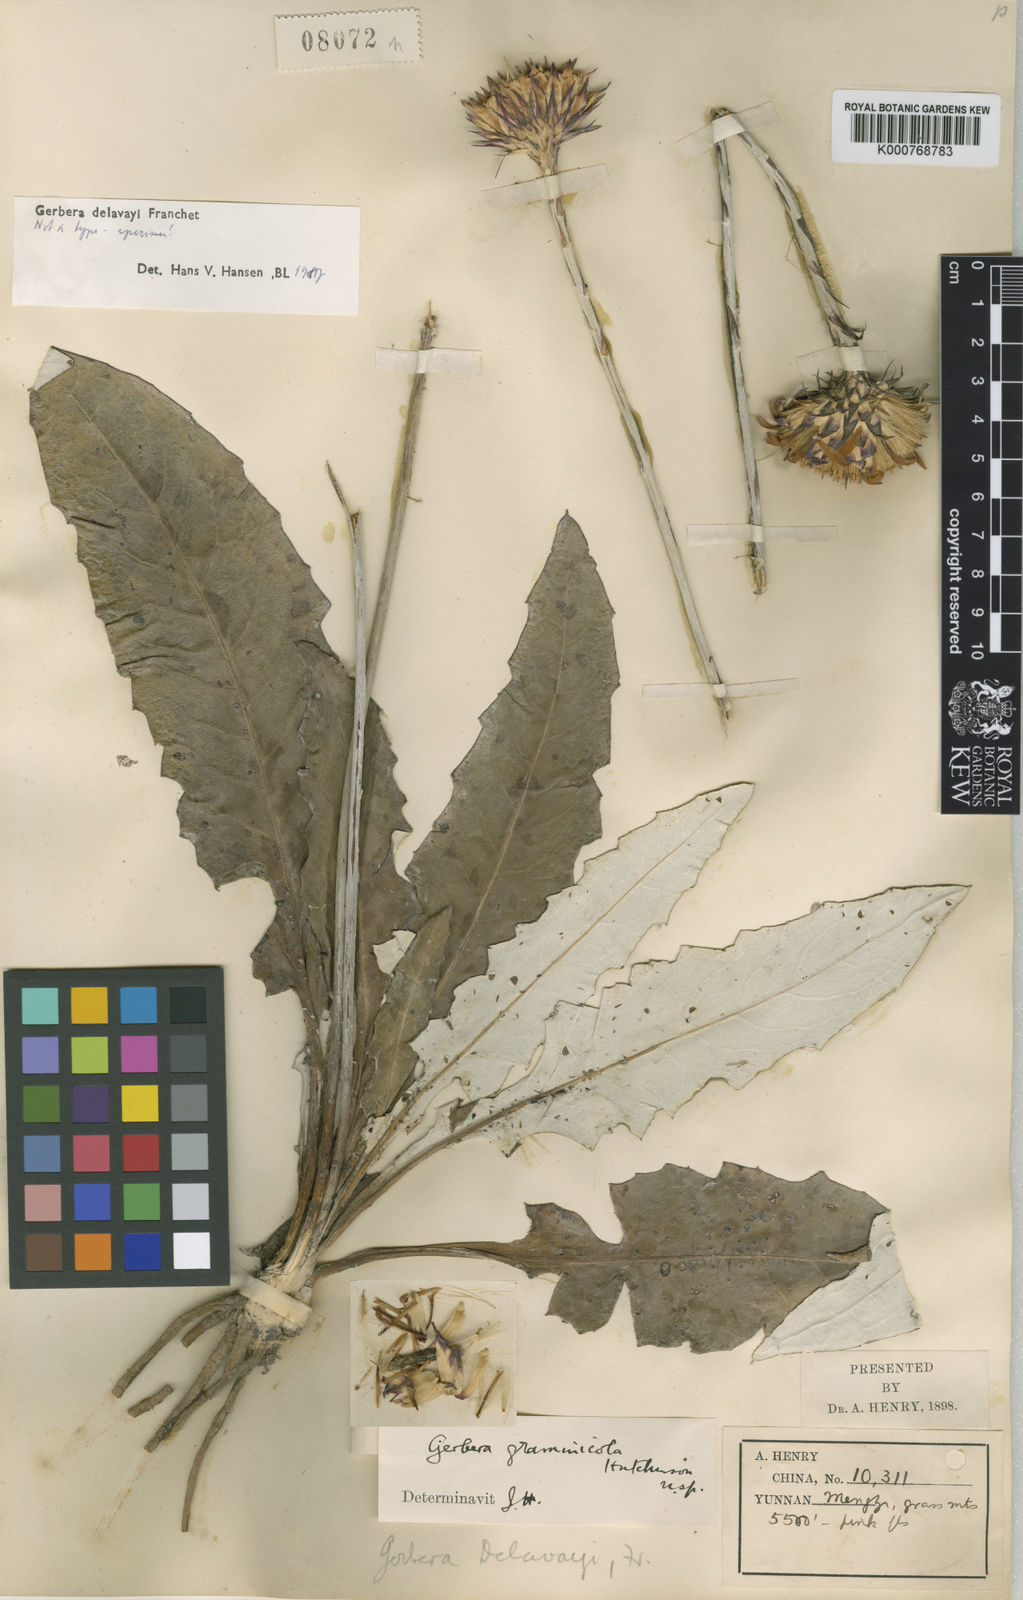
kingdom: Plantae
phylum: Tracheophyta
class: Magnoliopsida
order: Asterales
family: Asteraceae
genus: Oreoseris
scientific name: Oreoseris delavayi
